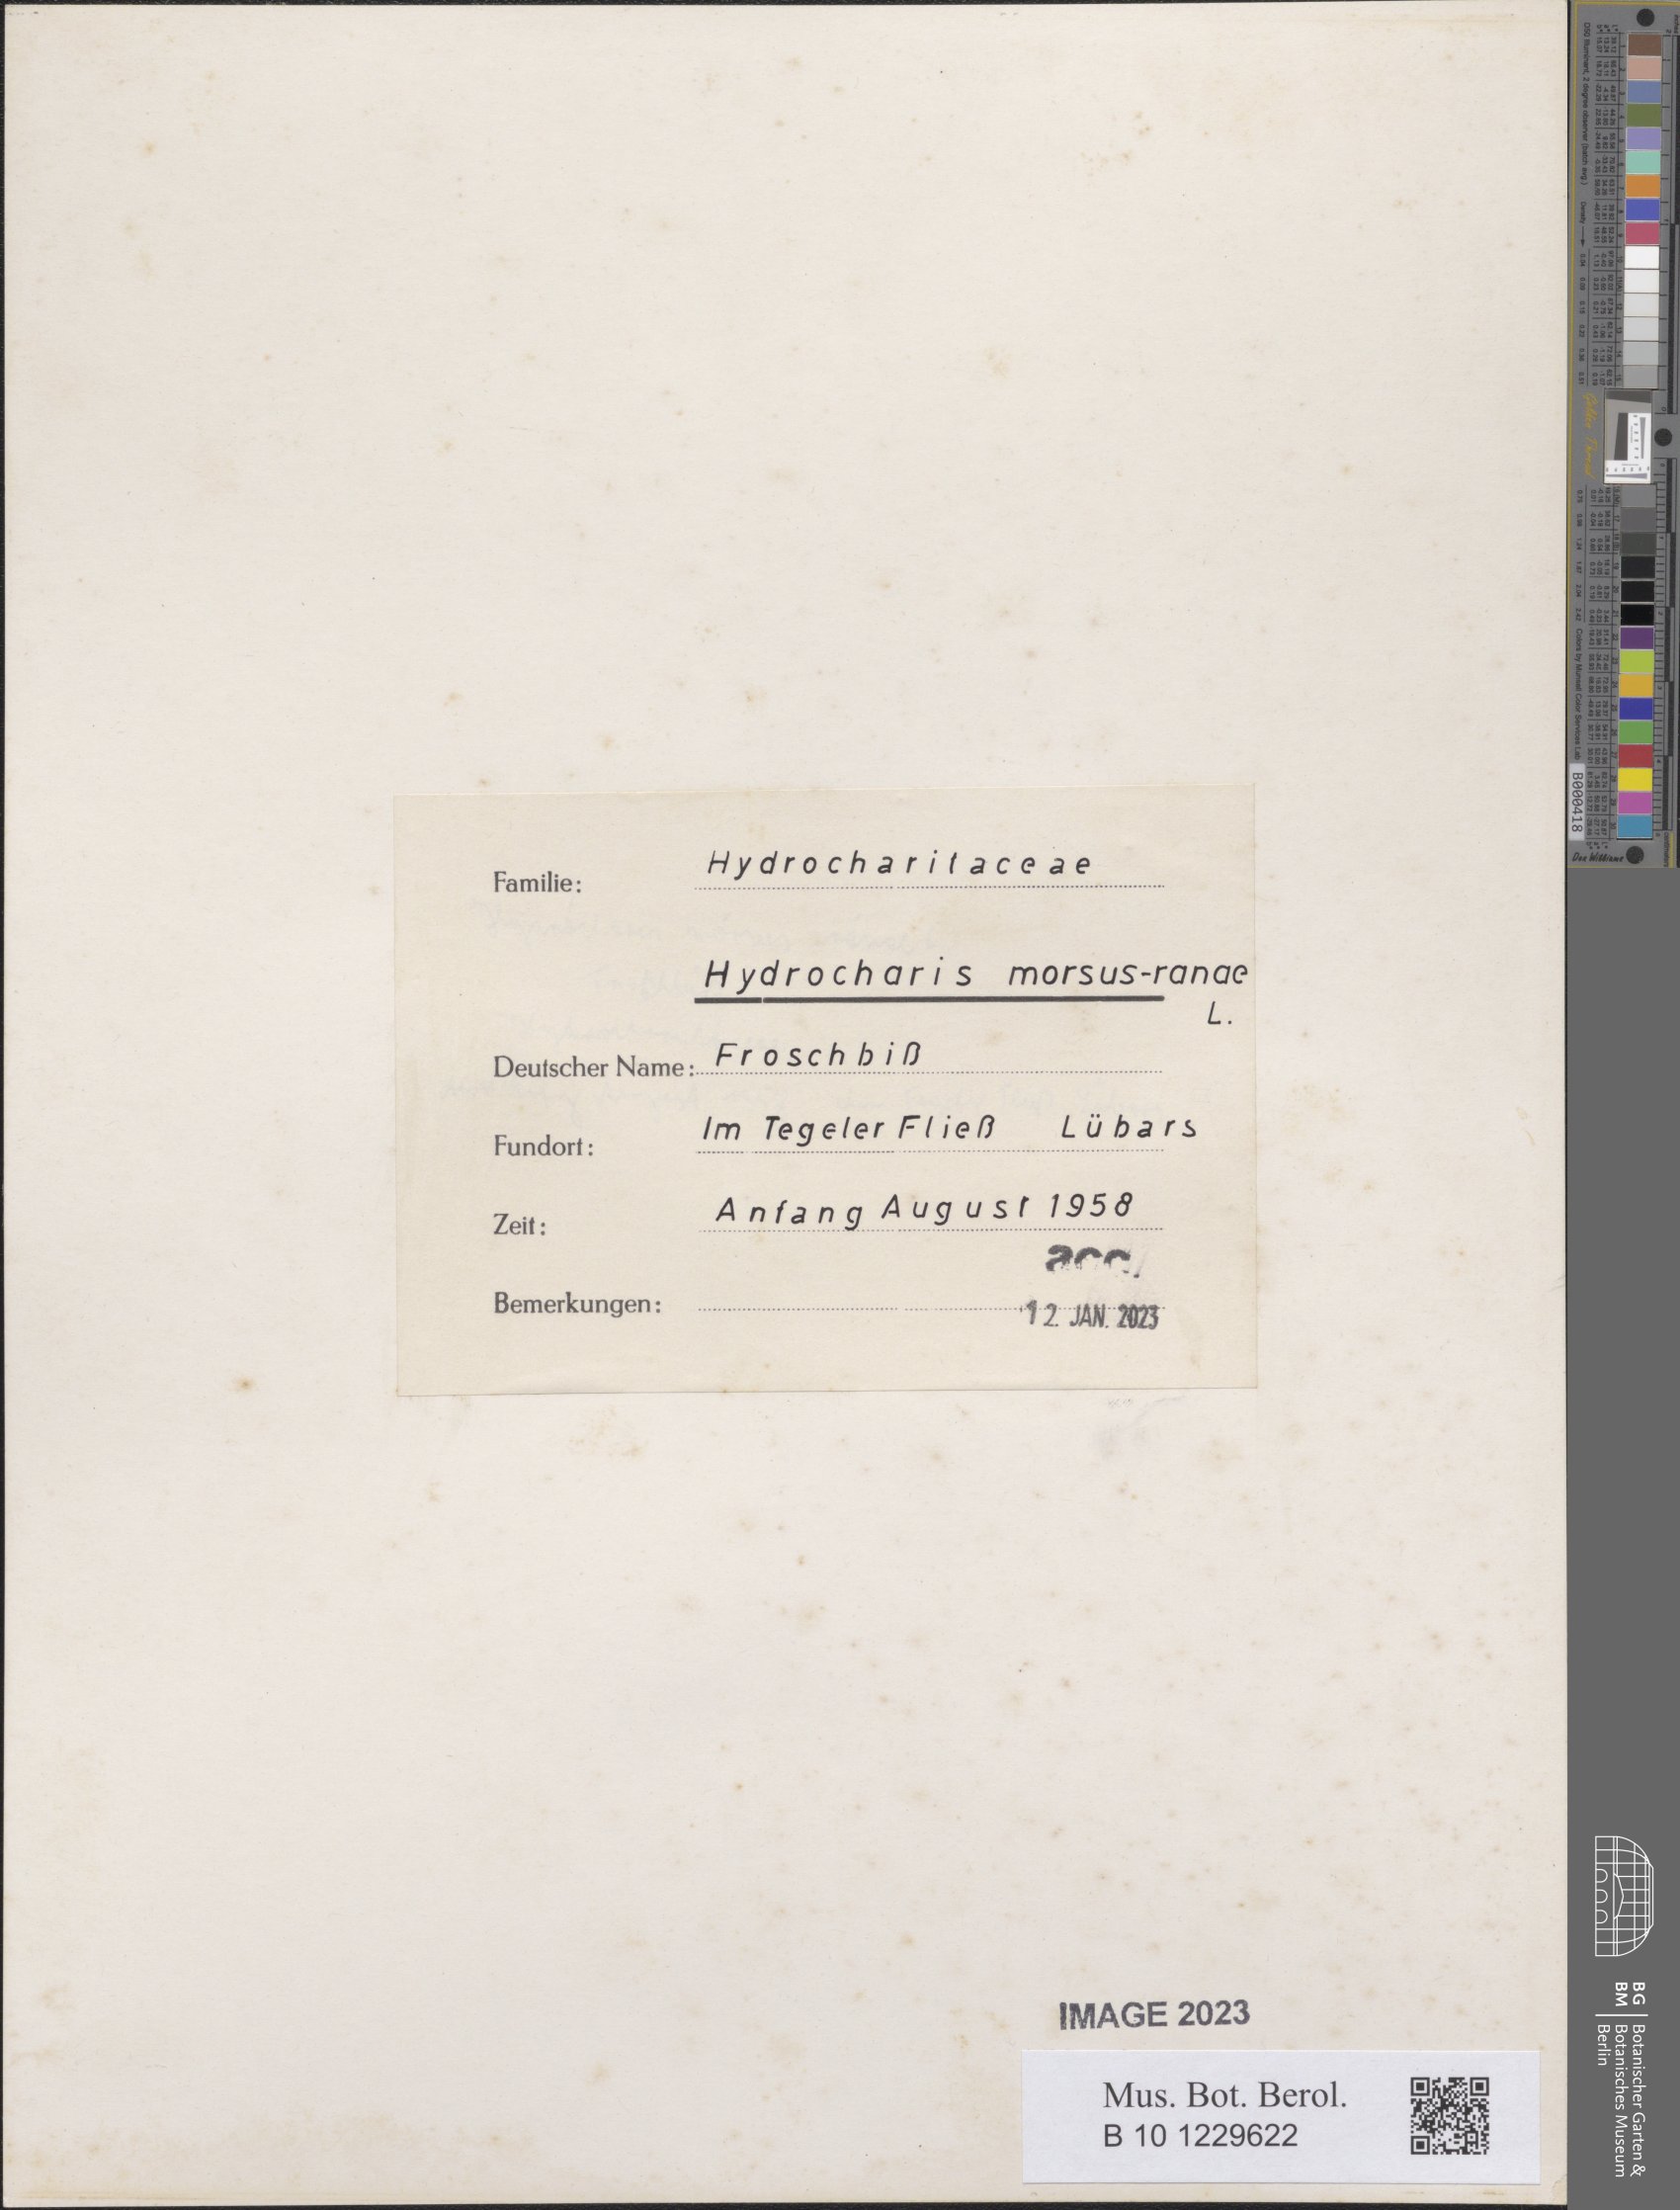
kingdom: Plantae
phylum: Tracheophyta
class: Liliopsida
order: Alismatales
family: Hydrocharitaceae
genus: Hydrocharis
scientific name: Hydrocharis morsus-ranae
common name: Frogbit
